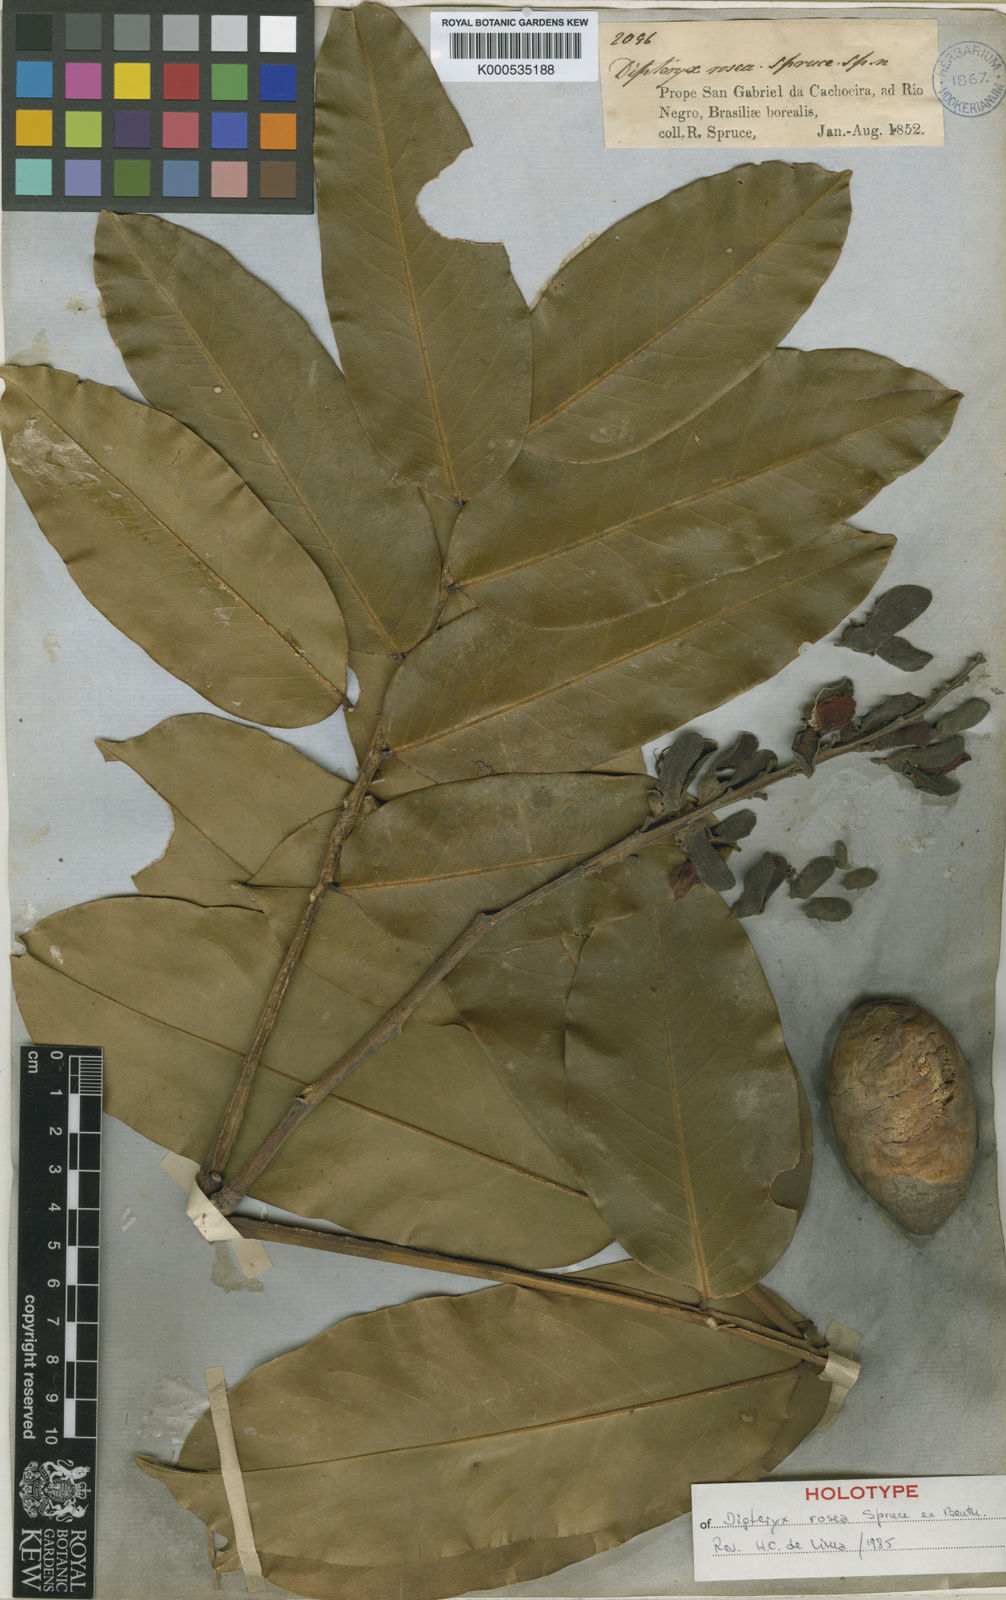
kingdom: Plantae
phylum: Tracheophyta
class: Magnoliopsida
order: Fabales
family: Fabaceae
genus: Dipteryx
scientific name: Dipteryx rosea
